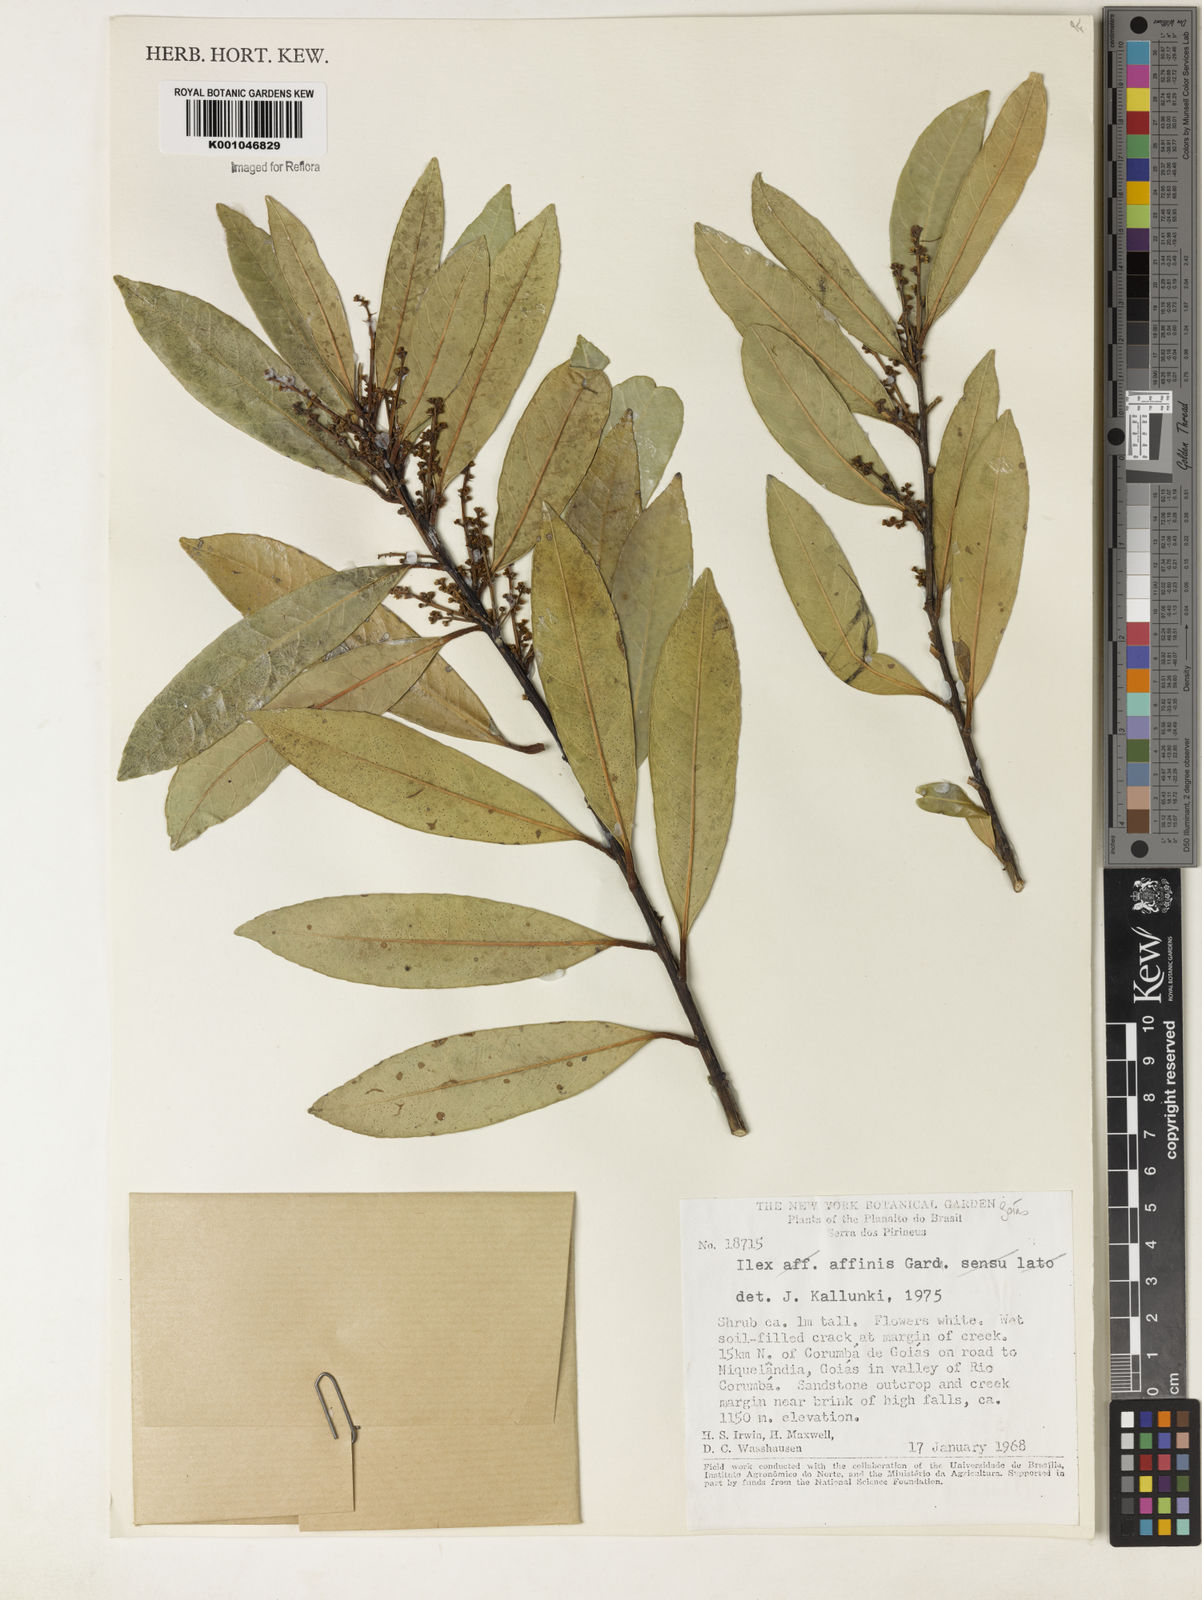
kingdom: Plantae
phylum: Tracheophyta
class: Magnoliopsida
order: Aquifoliales
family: Aquifoliaceae
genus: Ilex
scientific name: Ilex affinis
